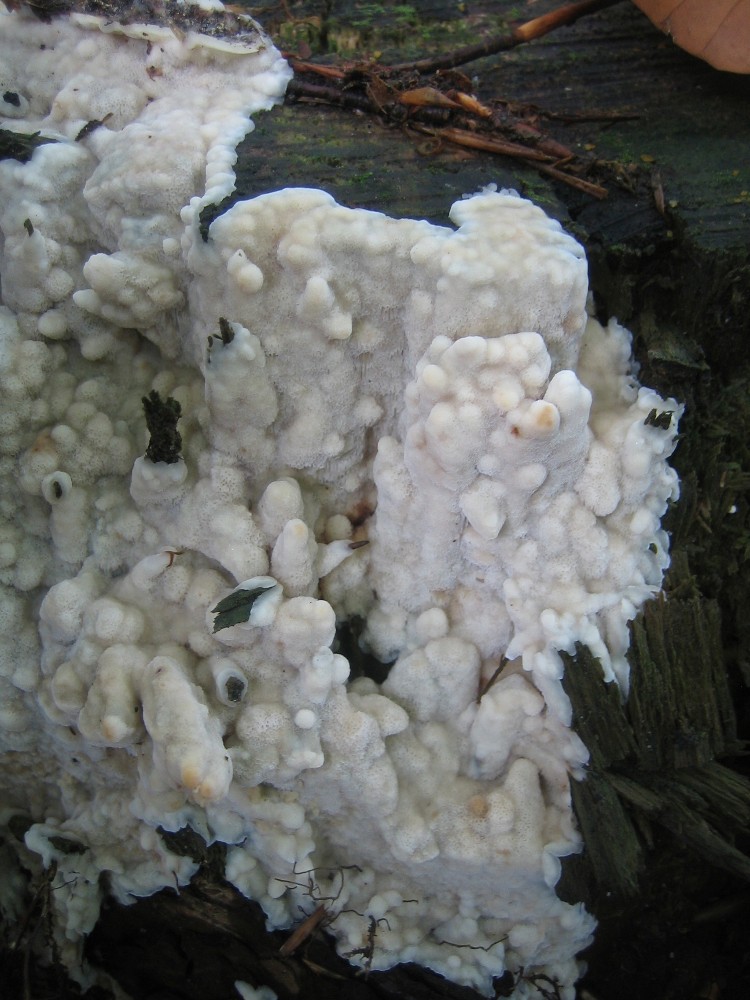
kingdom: Fungi
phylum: Basidiomycota
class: Agaricomycetes
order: Polyporales
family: Meruliaceae
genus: Physisporinus
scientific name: Physisporinus
